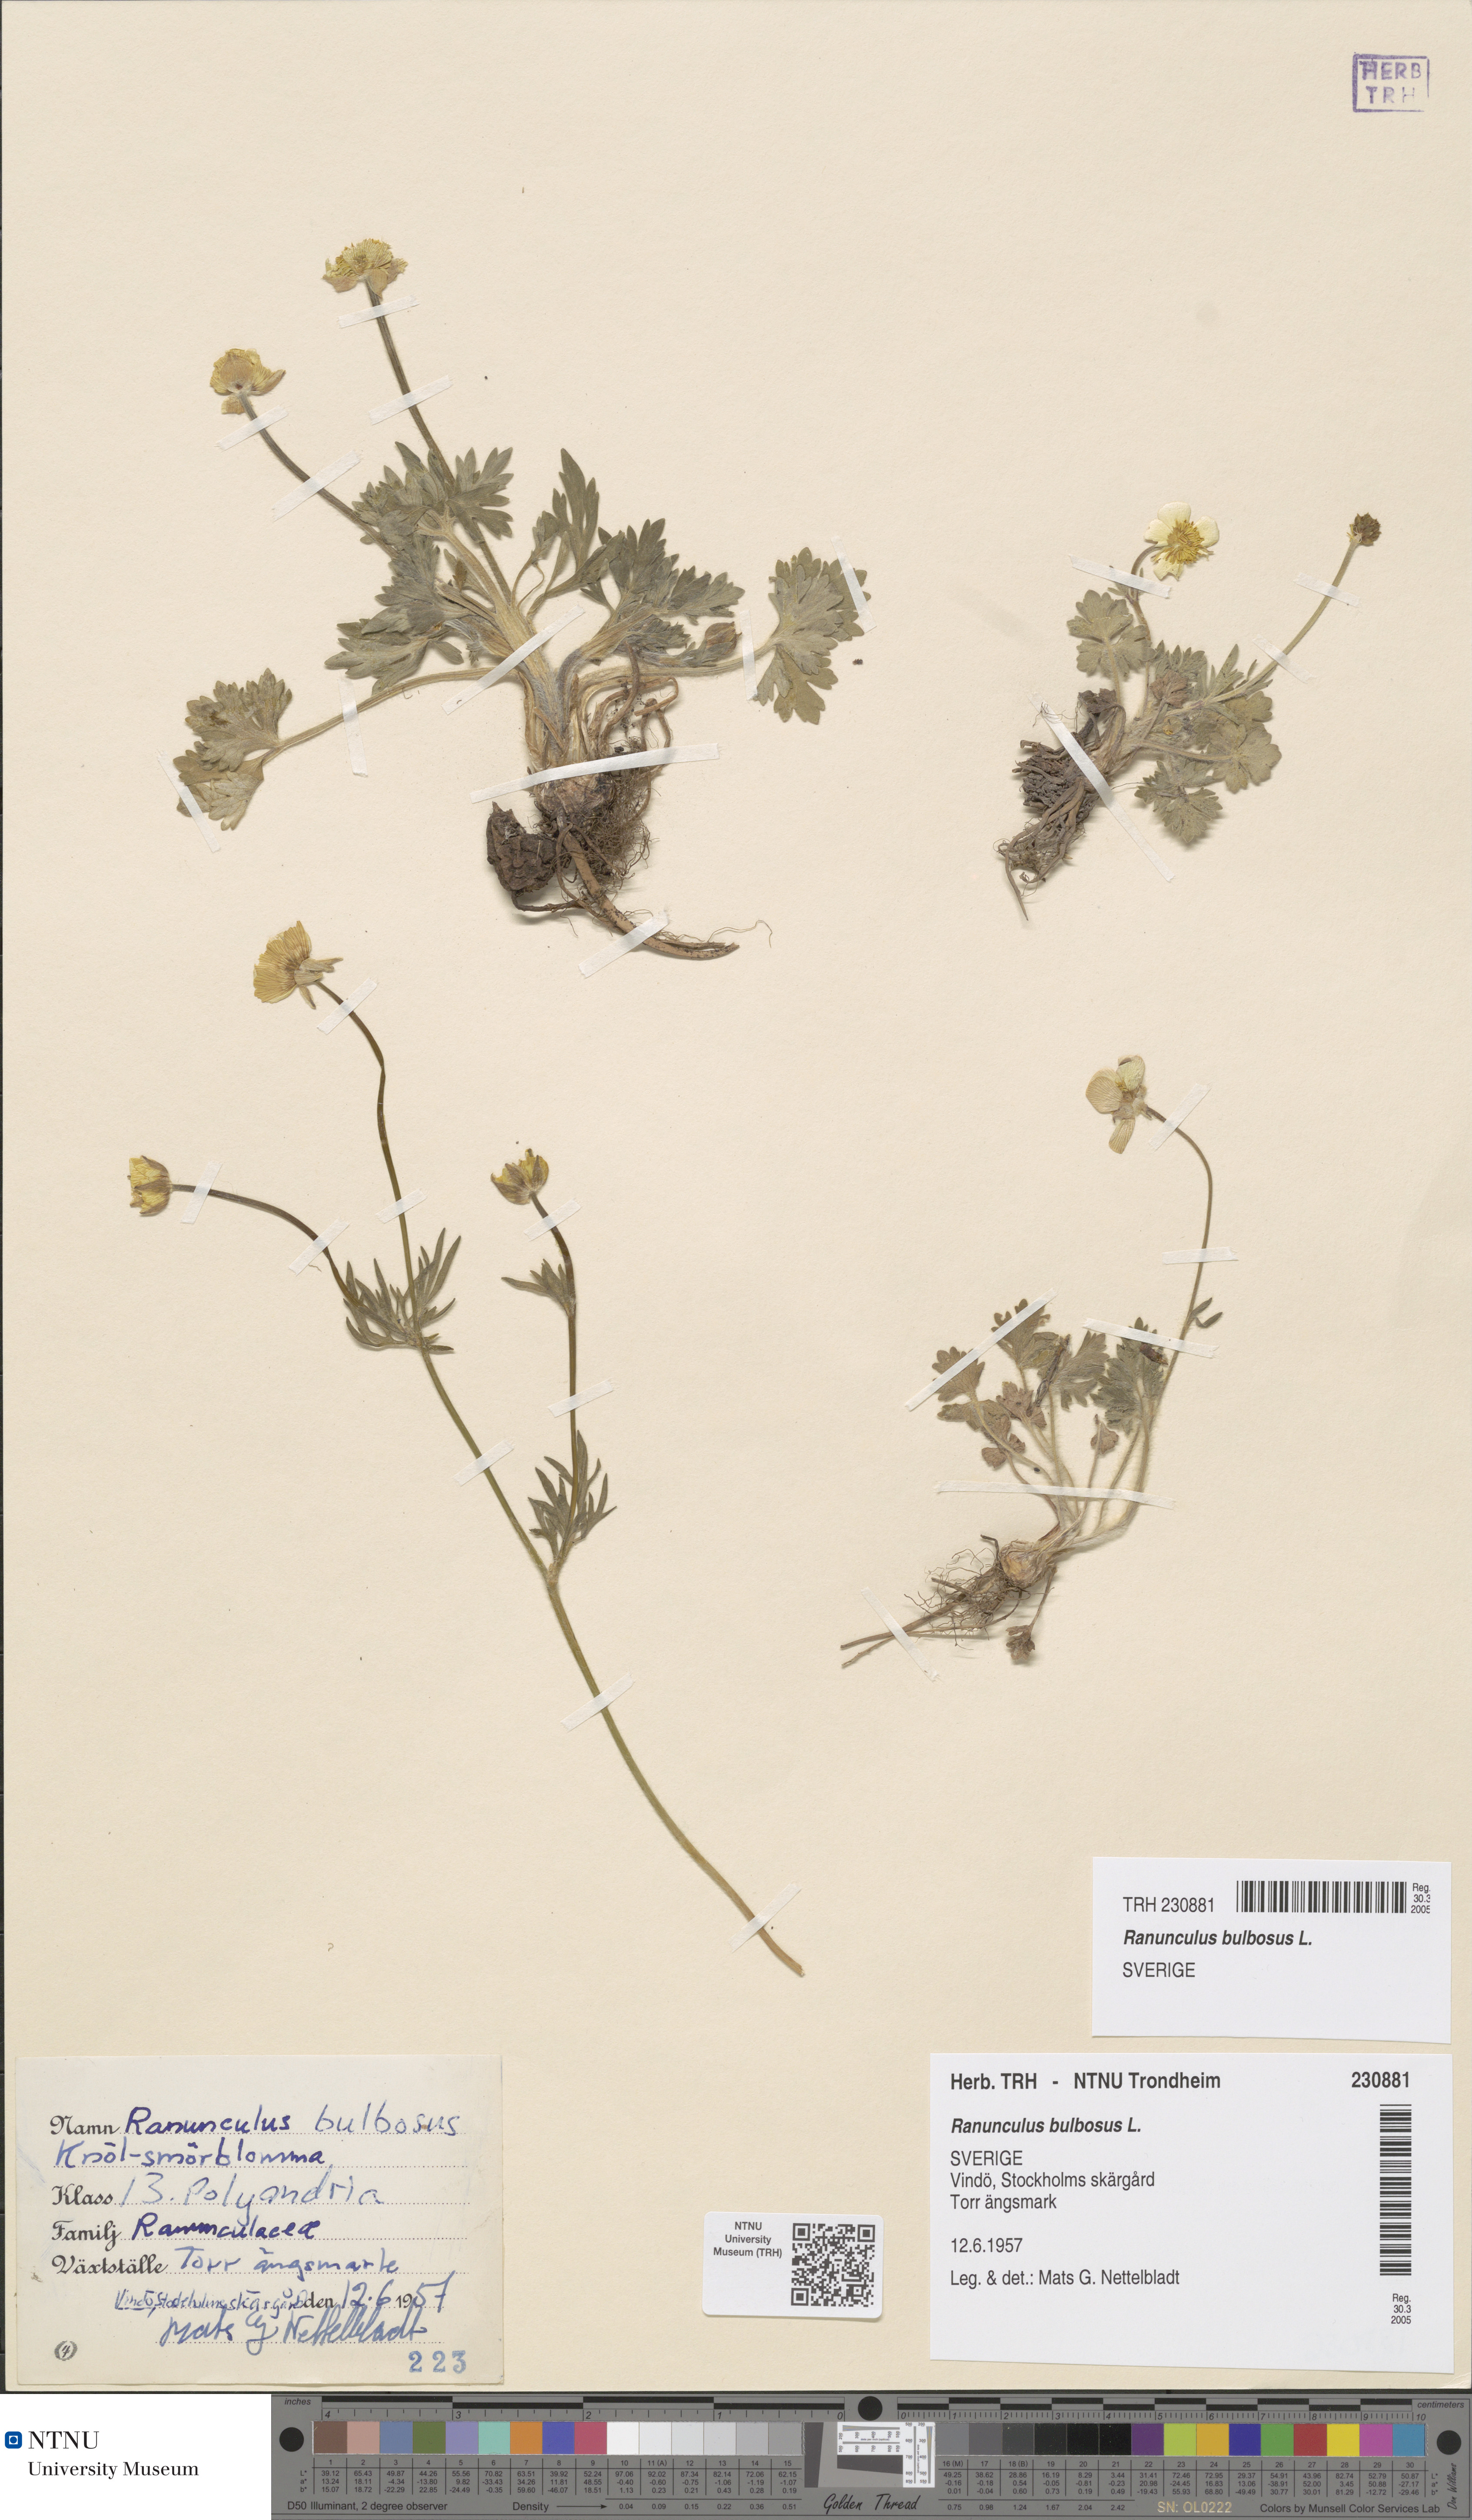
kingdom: Plantae
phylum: Tracheophyta
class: Magnoliopsida
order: Ranunculales
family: Ranunculaceae
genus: Ranunculus
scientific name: Ranunculus bulbosus
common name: Bulbous buttercup
